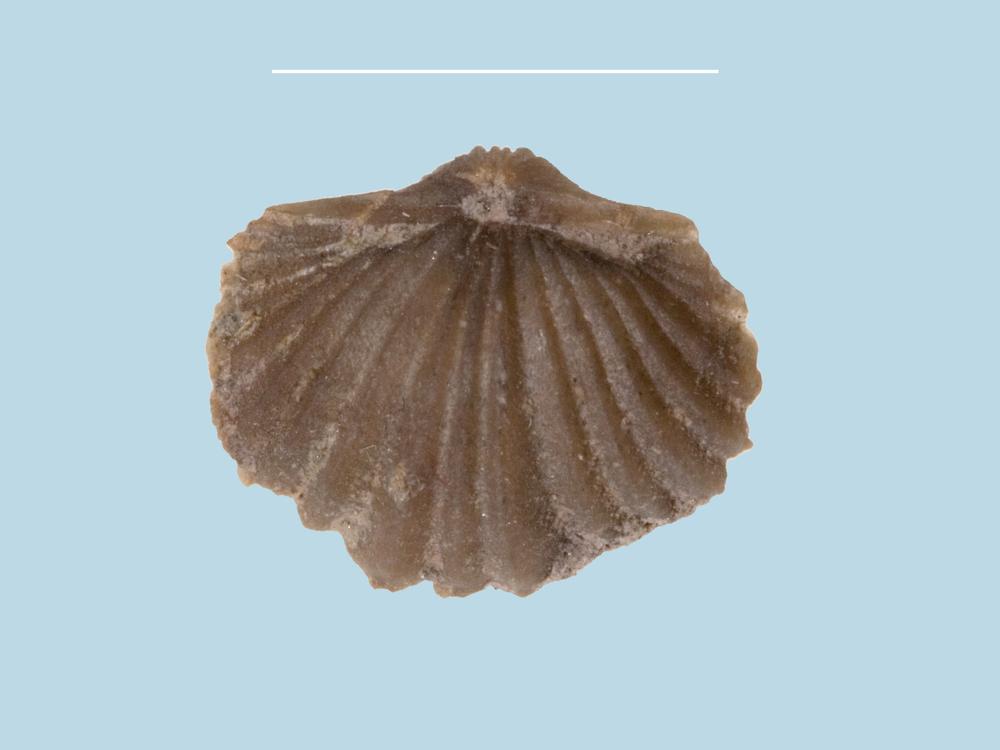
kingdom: Animalia
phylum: Brachiopoda
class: Rhynchonellata
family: Paurorthidae
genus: Paurorthis
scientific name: Paurorthis
